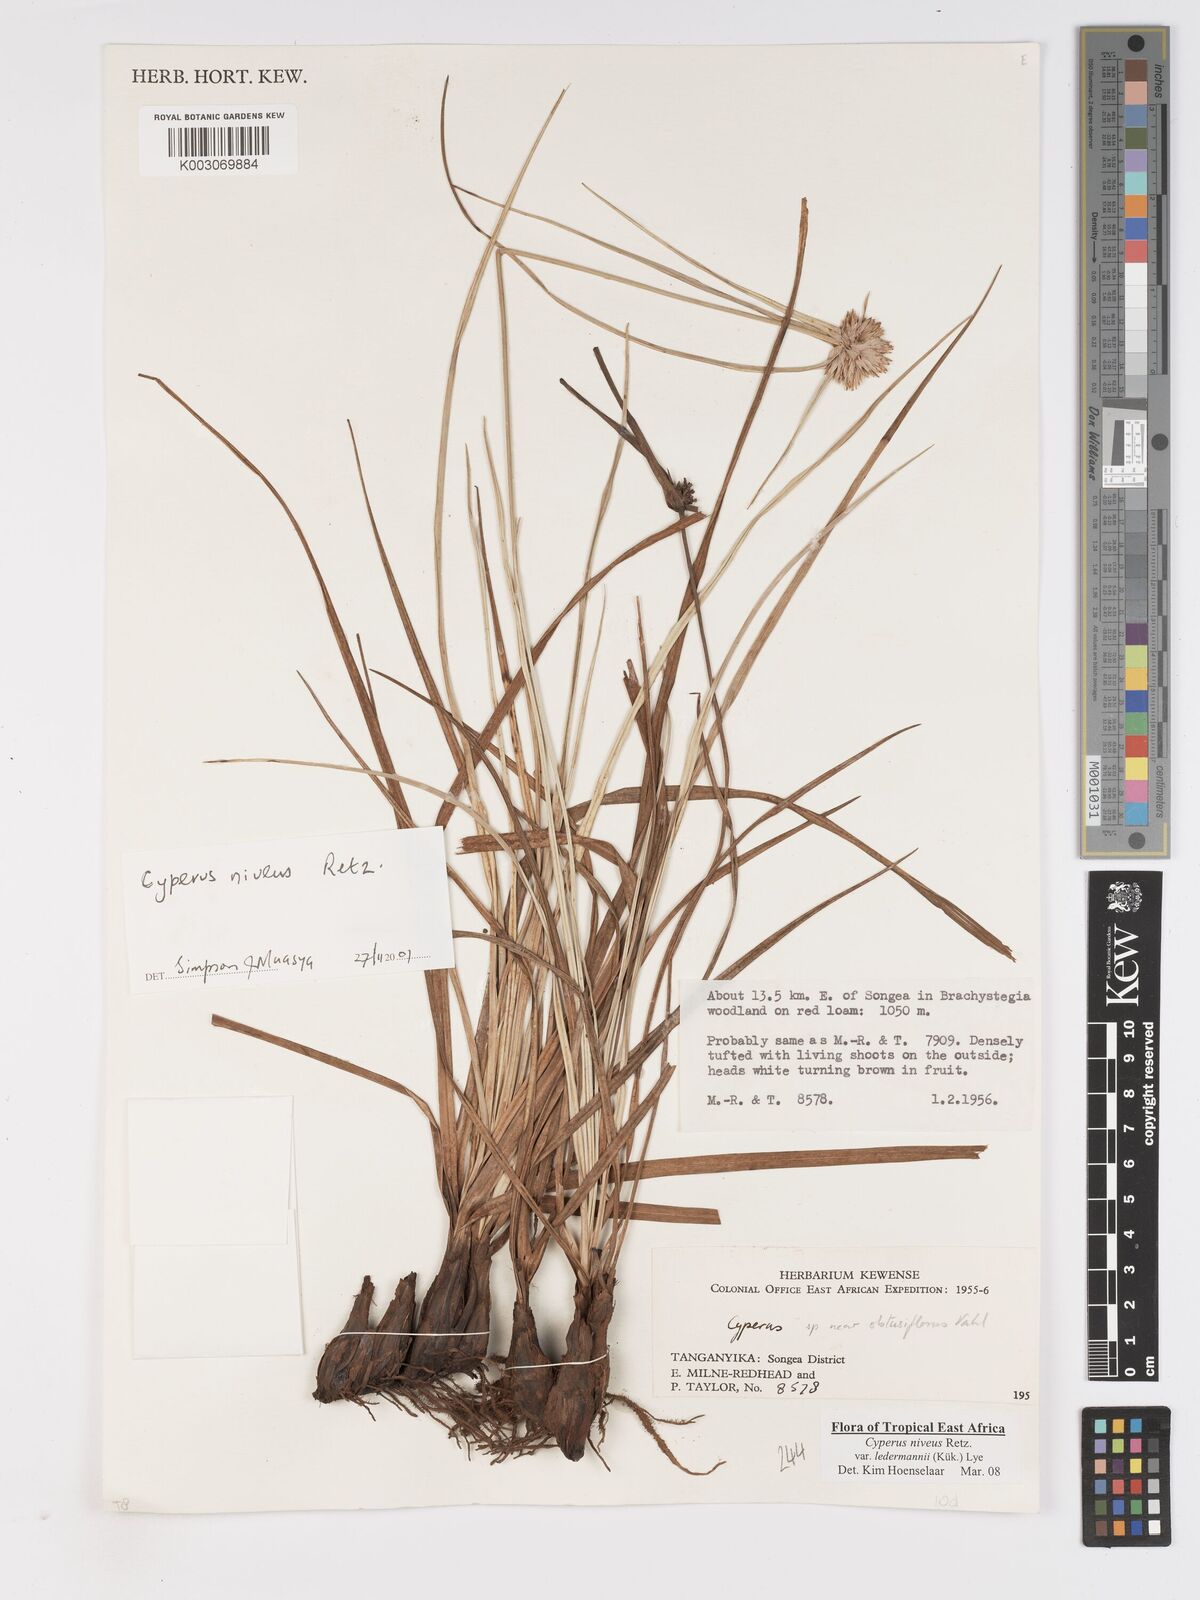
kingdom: Plantae
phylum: Tracheophyta
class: Liliopsida
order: Poales
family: Cyperaceae
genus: Cyperus
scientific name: Cyperus niveus
